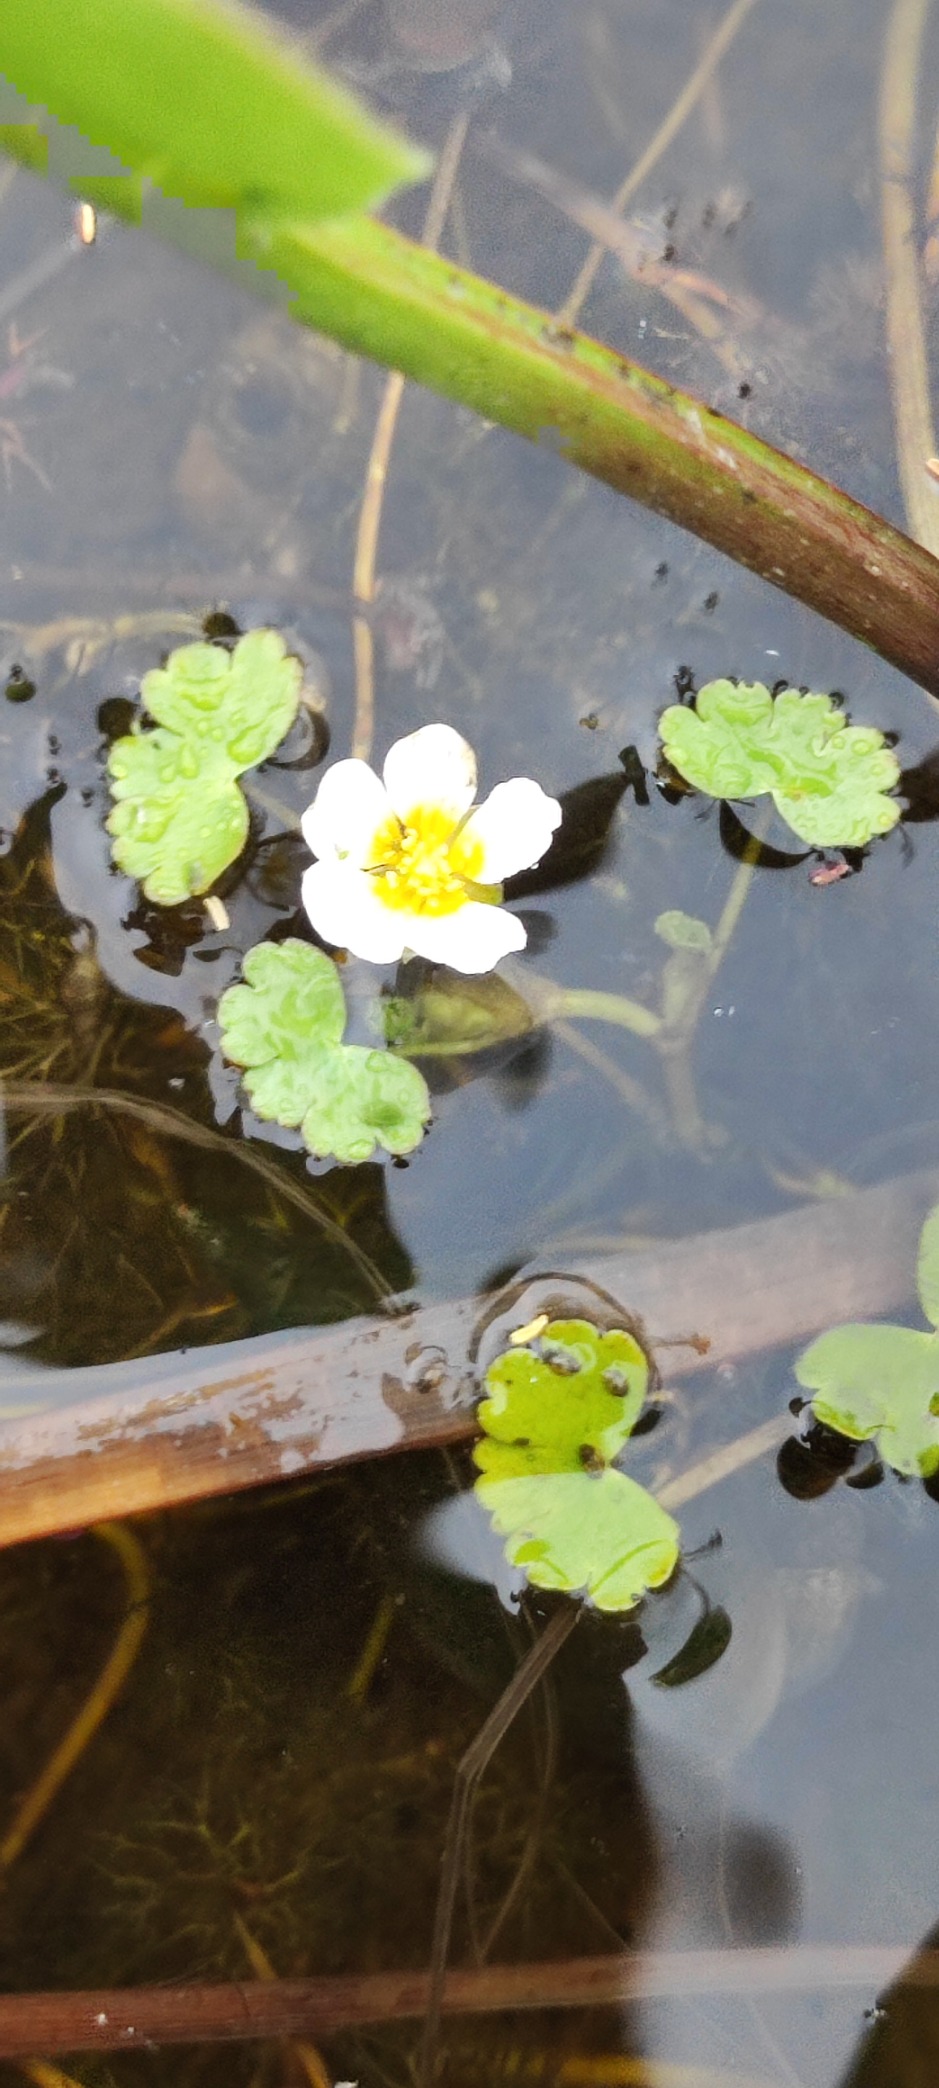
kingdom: Plantae
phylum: Tracheophyta
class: Magnoliopsida
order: Ranunculales
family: Ranunculaceae
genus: Ranunculus
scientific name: Ranunculus peltatus
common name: Storblomstret vandranunkel (underart)
